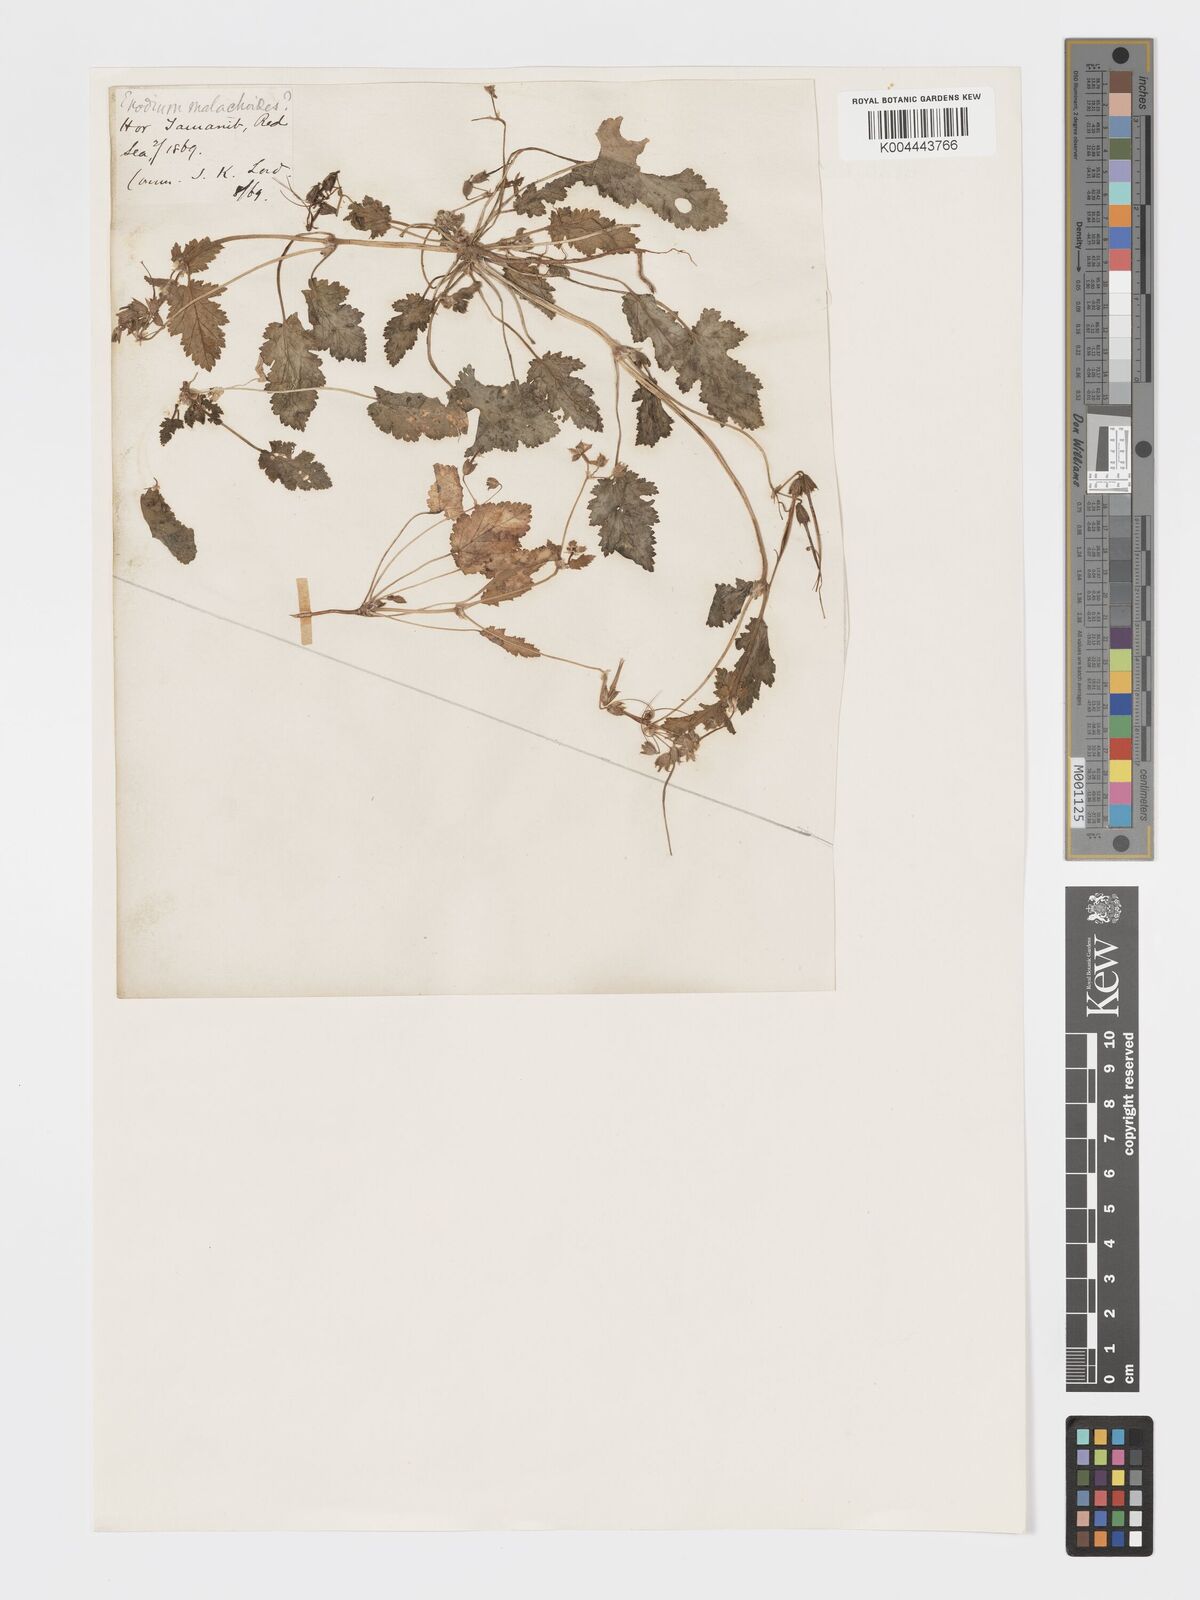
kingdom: Plantae
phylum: Tracheophyta
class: Magnoliopsida
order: Geraniales
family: Geraniaceae
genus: Erodium
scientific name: Erodium malacoides
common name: Soft stork's-bill
